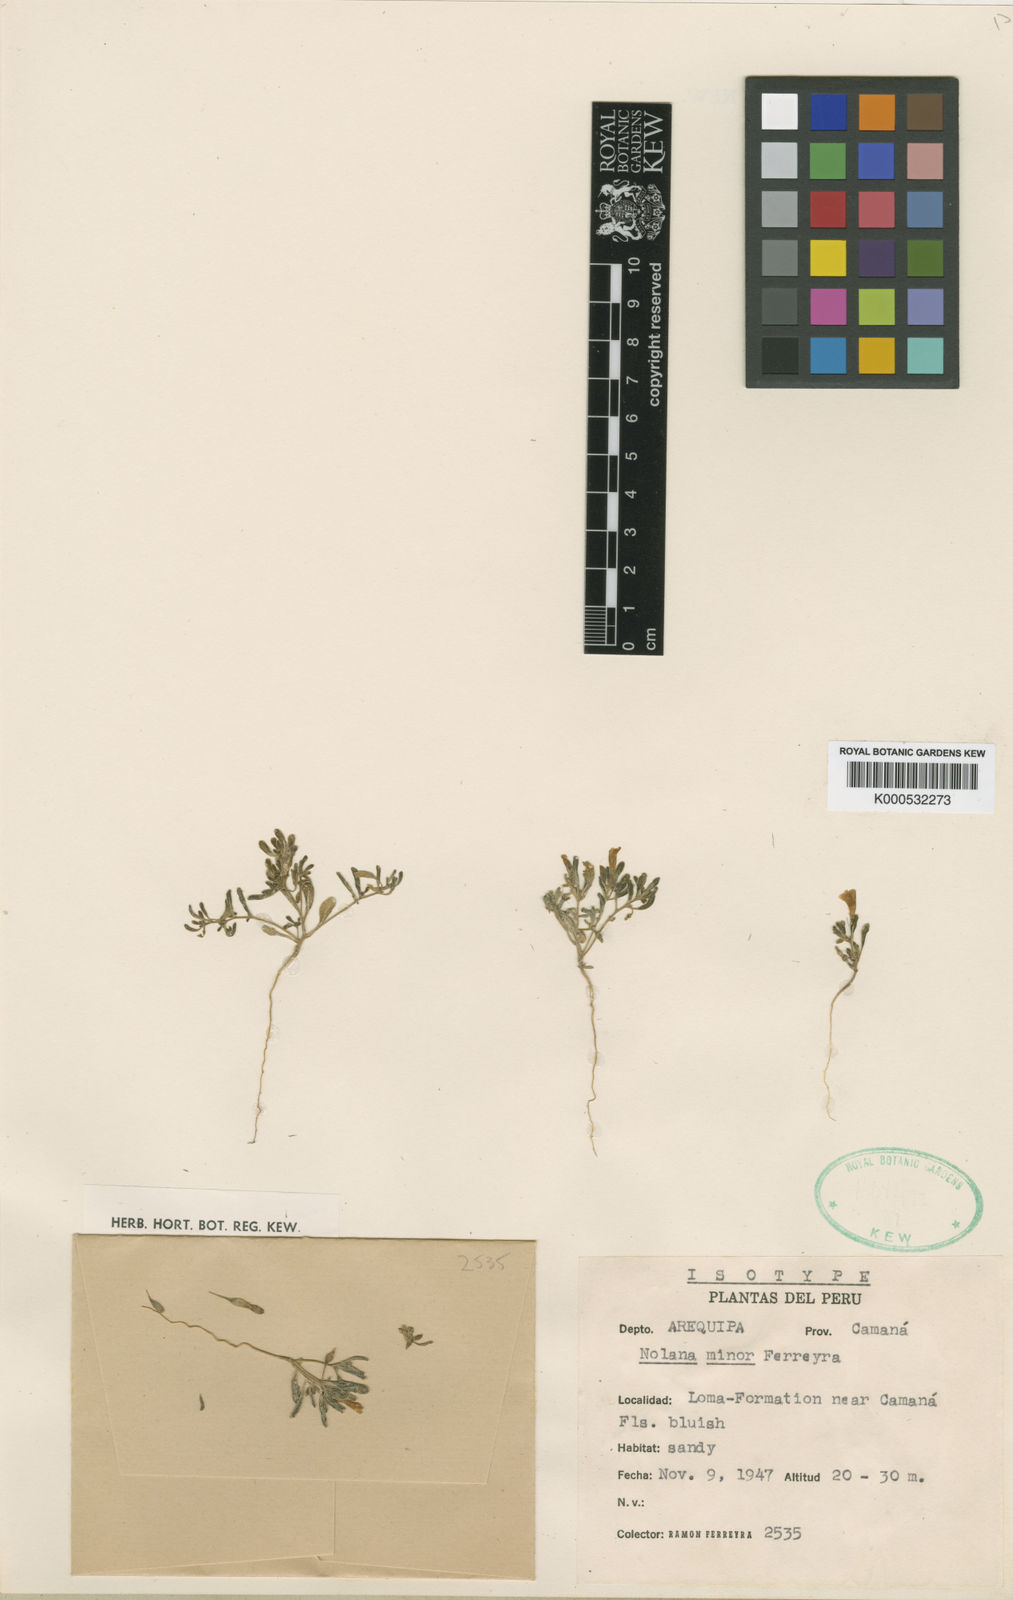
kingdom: Plantae
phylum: Tracheophyta
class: Magnoliopsida
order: Solanales
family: Solanaceae
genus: Nolana
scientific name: Nolana tarapacana
